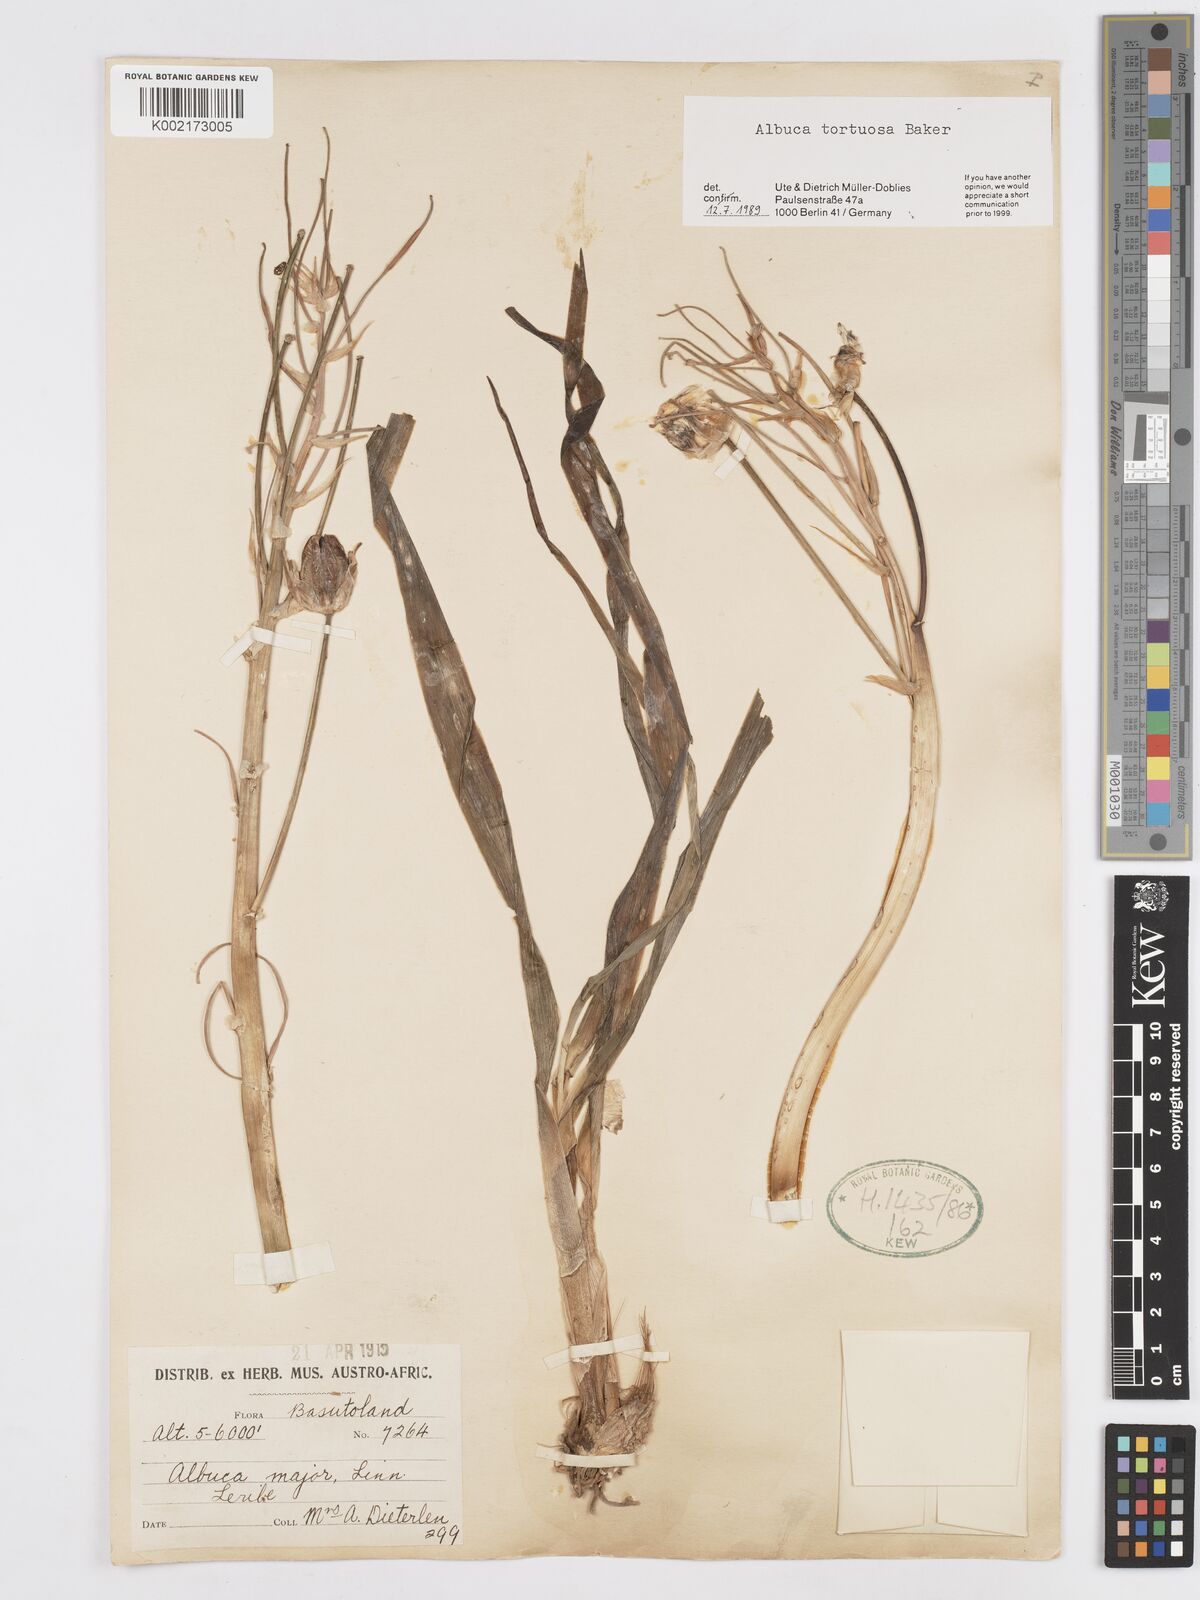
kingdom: Plantae
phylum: Tracheophyta
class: Liliopsida
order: Asparagales
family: Asparagaceae
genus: Albuca
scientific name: Albuca tortuosa
